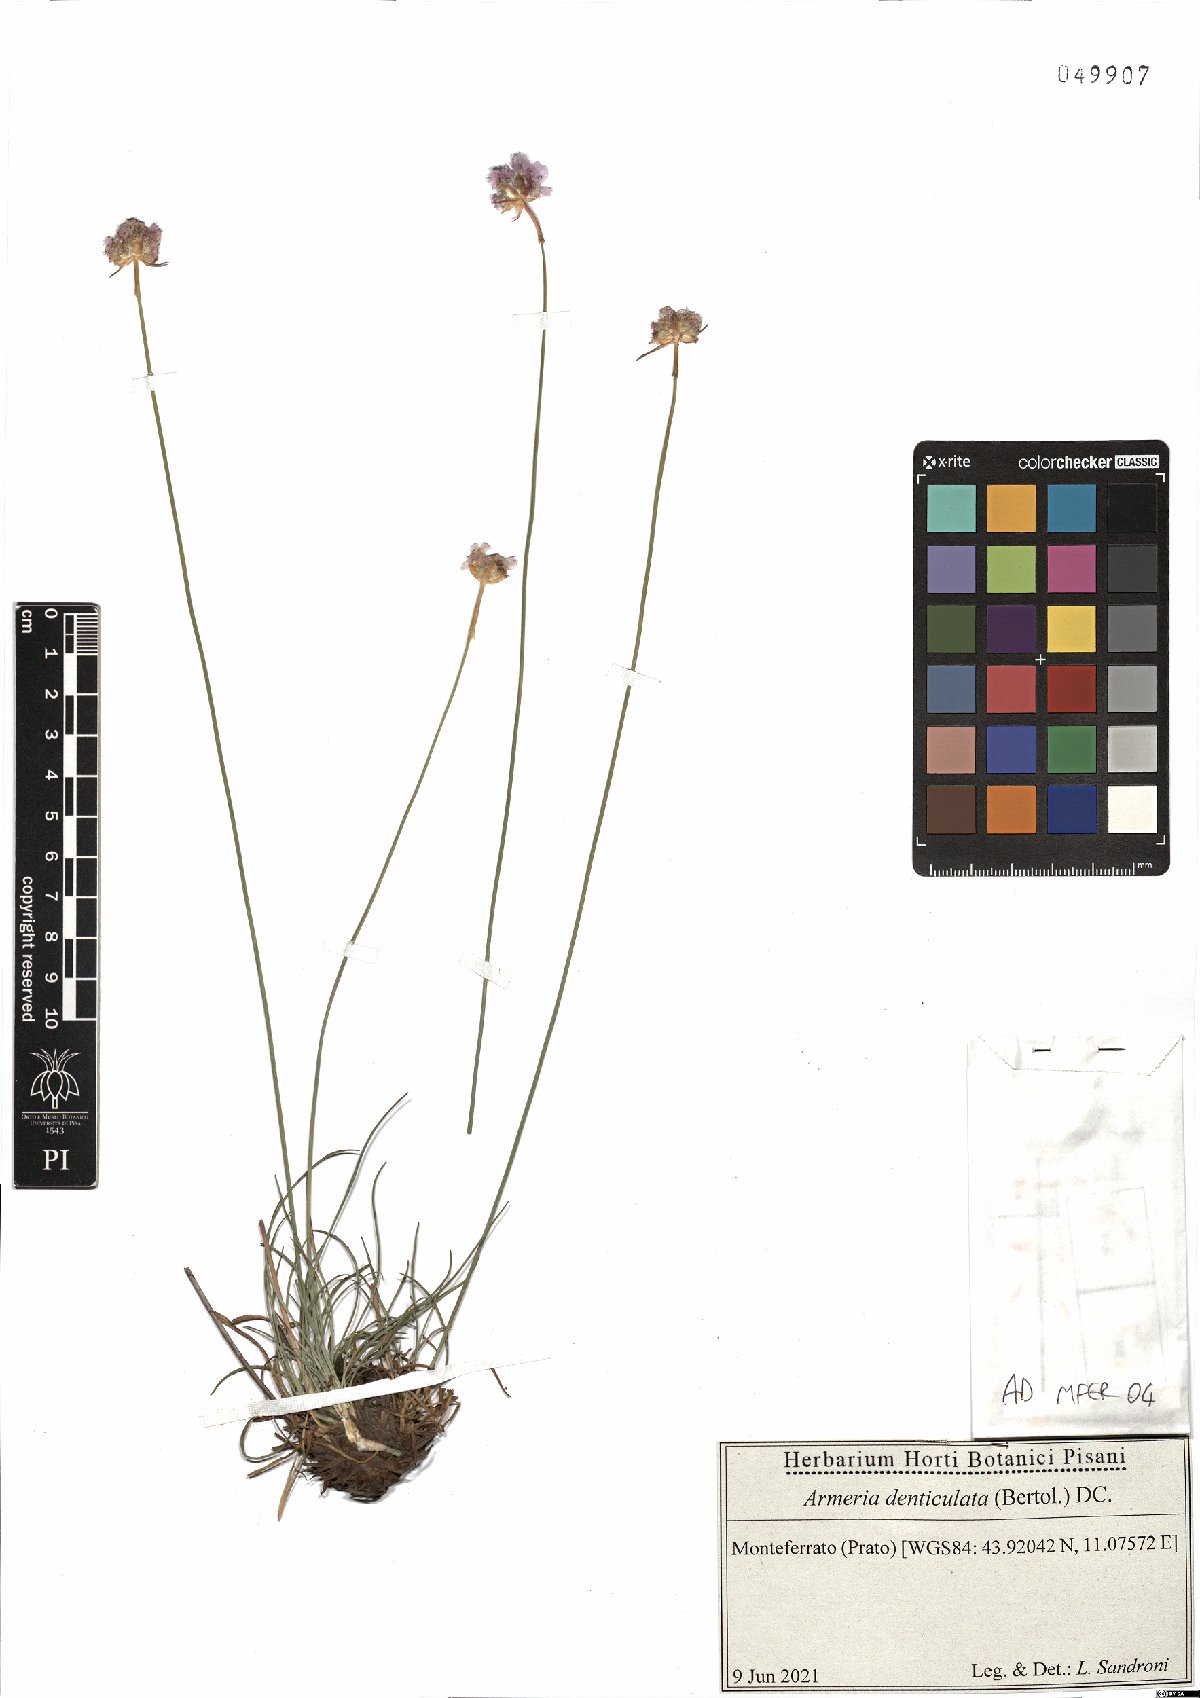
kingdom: Plantae
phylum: Tracheophyta
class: Magnoliopsida
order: Caryophyllales
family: Plumbaginaceae
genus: Armeria
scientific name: Armeria denticulata
